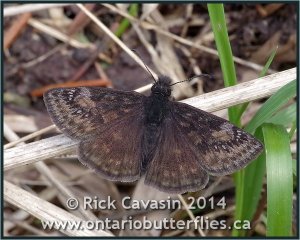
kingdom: Animalia
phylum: Arthropoda
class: Insecta
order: Lepidoptera
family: Hesperiidae
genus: Gesta
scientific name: Gesta
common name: Columbine Duskywing
